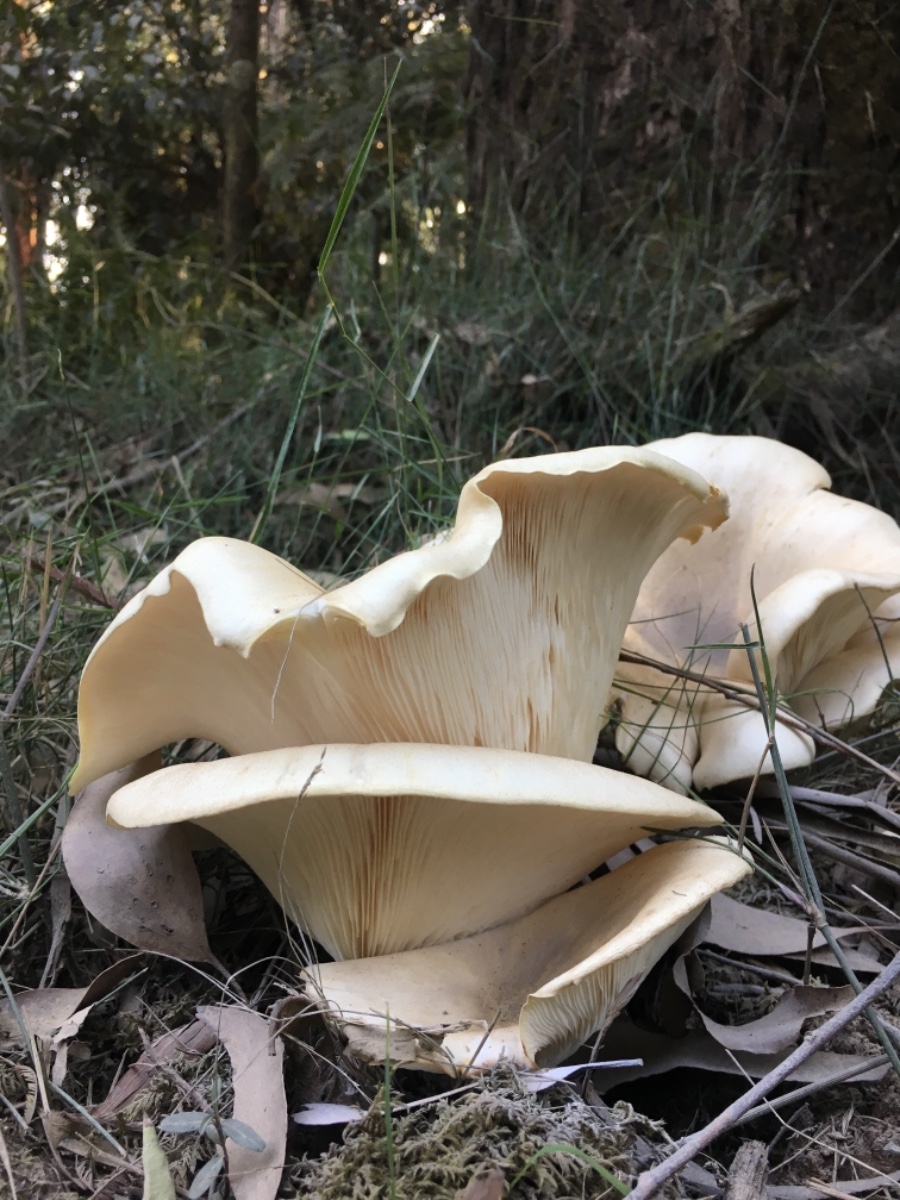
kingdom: Fungi
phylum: Basidiomycota
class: Agaricomycetes
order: Agaricales
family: Omphalotaceae
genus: Omphalotus
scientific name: Omphalotus
